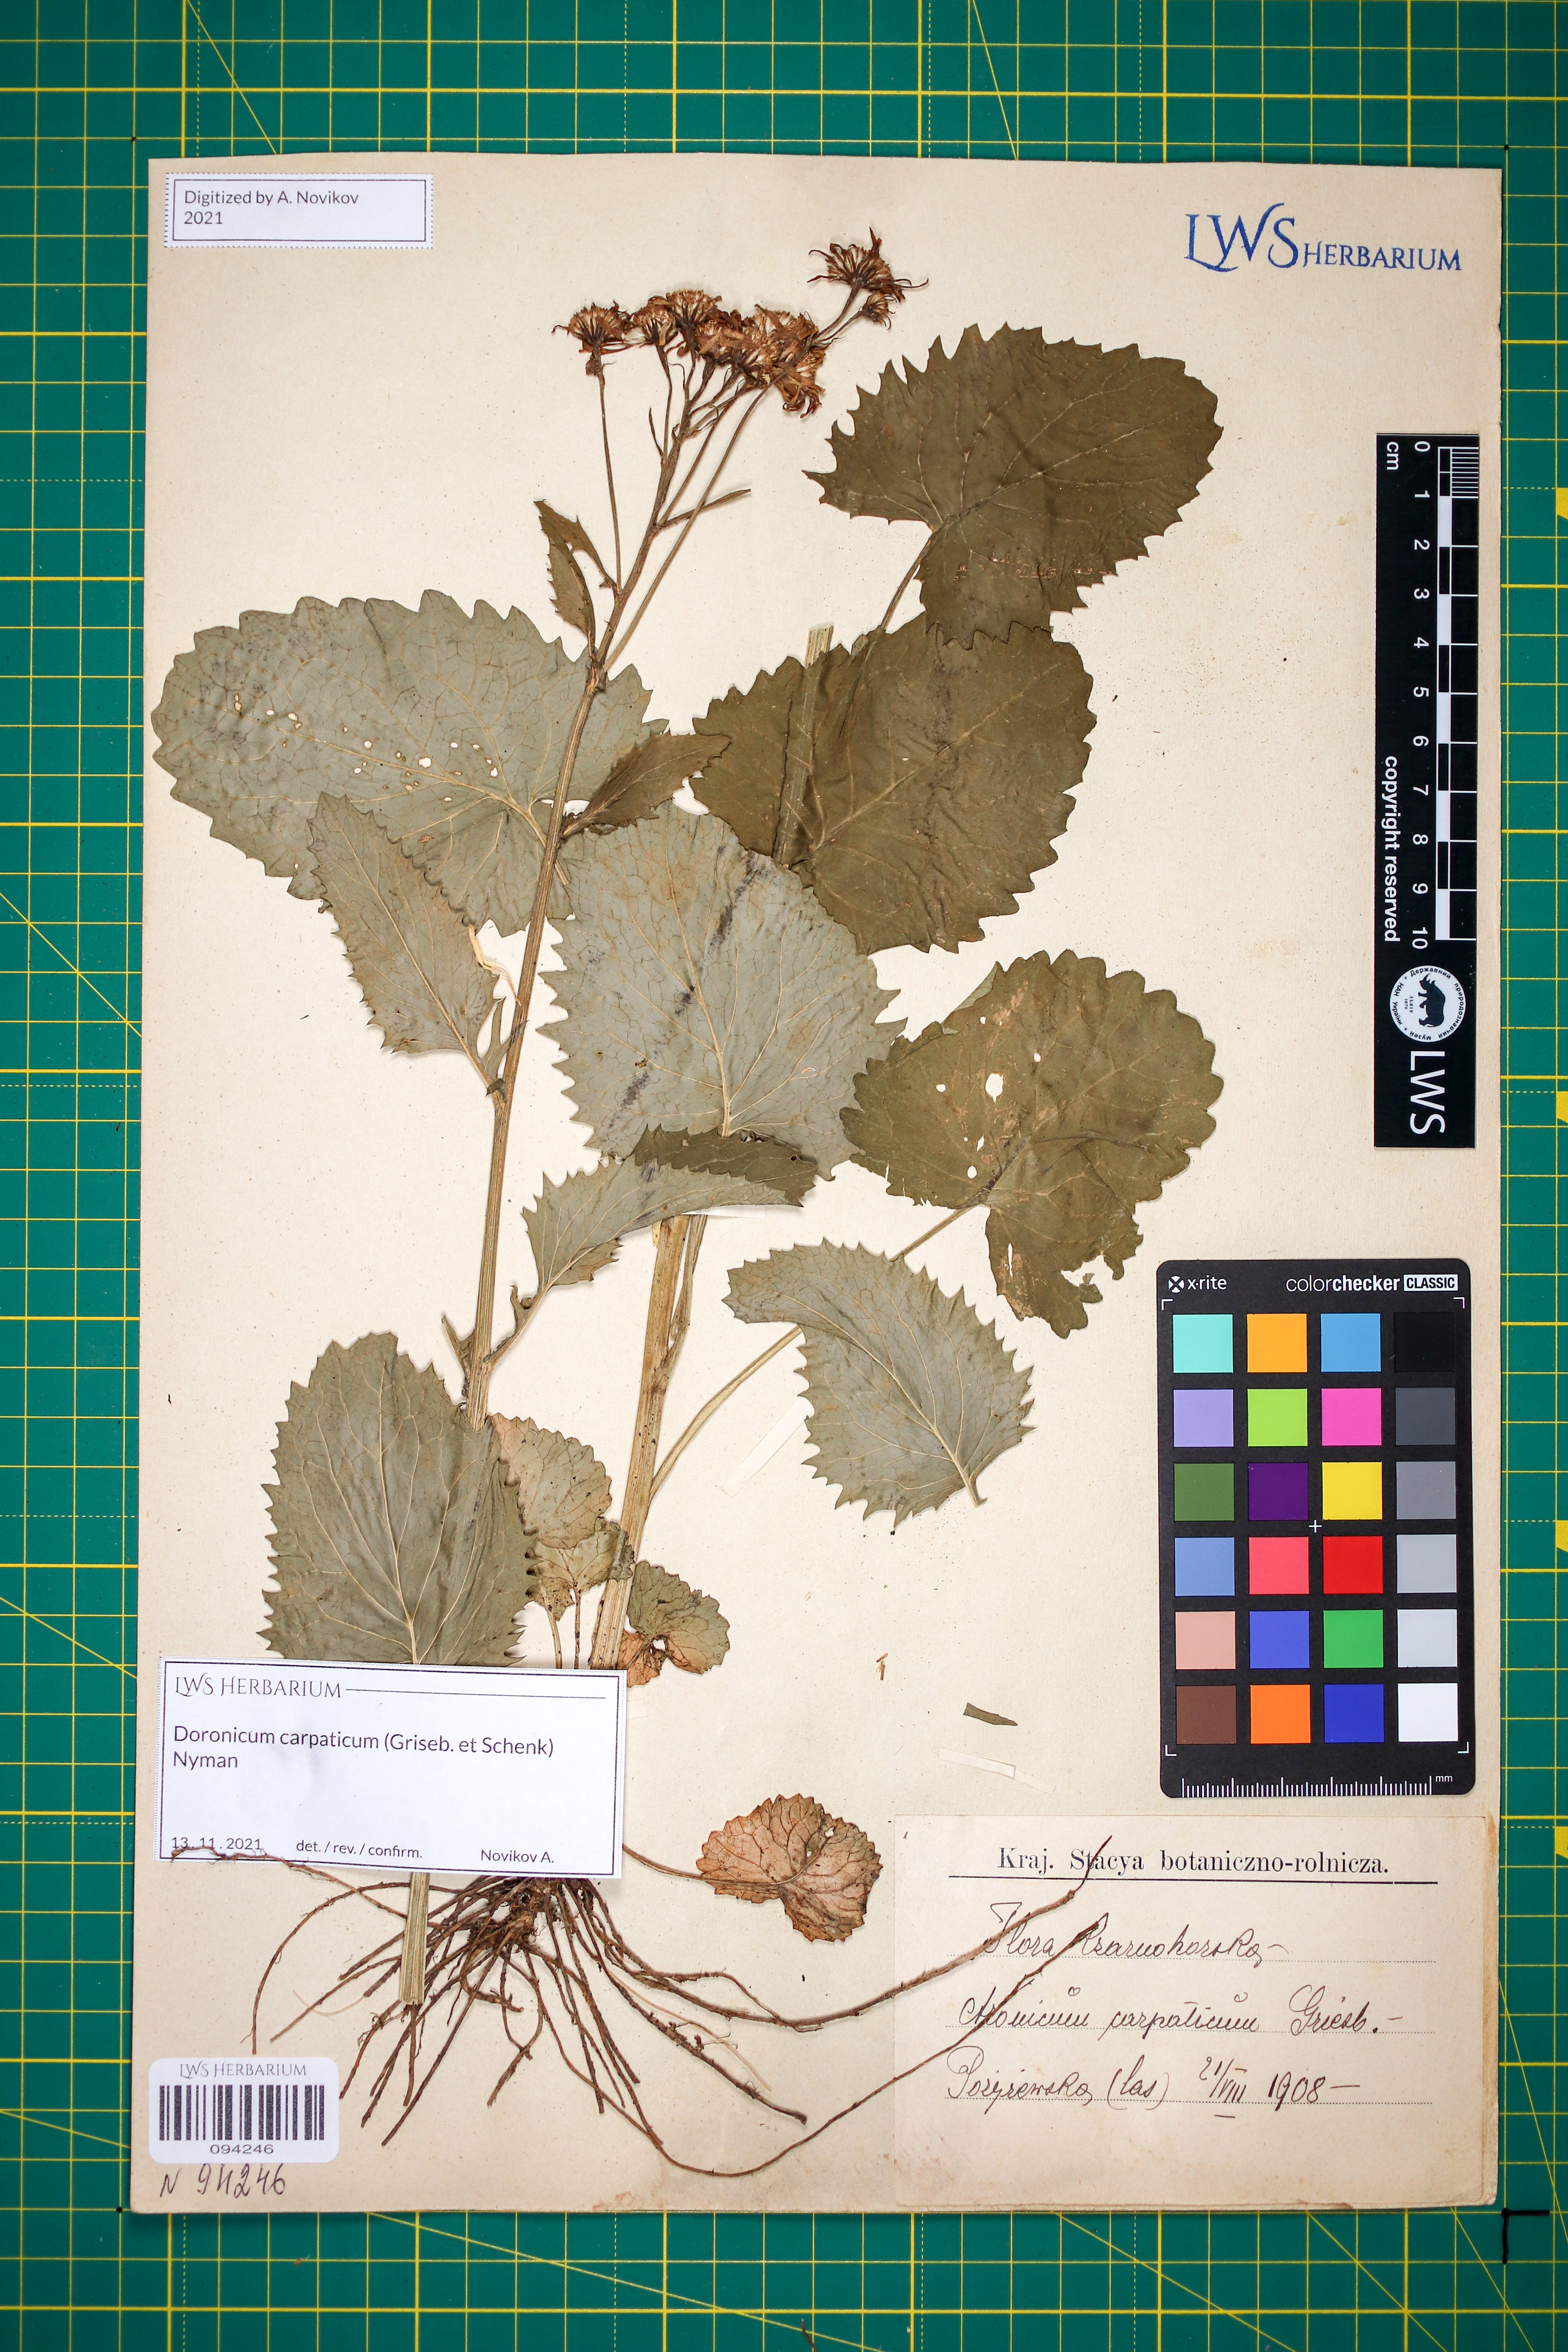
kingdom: Plantae
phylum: Tracheophyta
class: Magnoliopsida
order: Asterales
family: Asteraceae
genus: Doronicum
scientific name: Doronicum carpaticum
